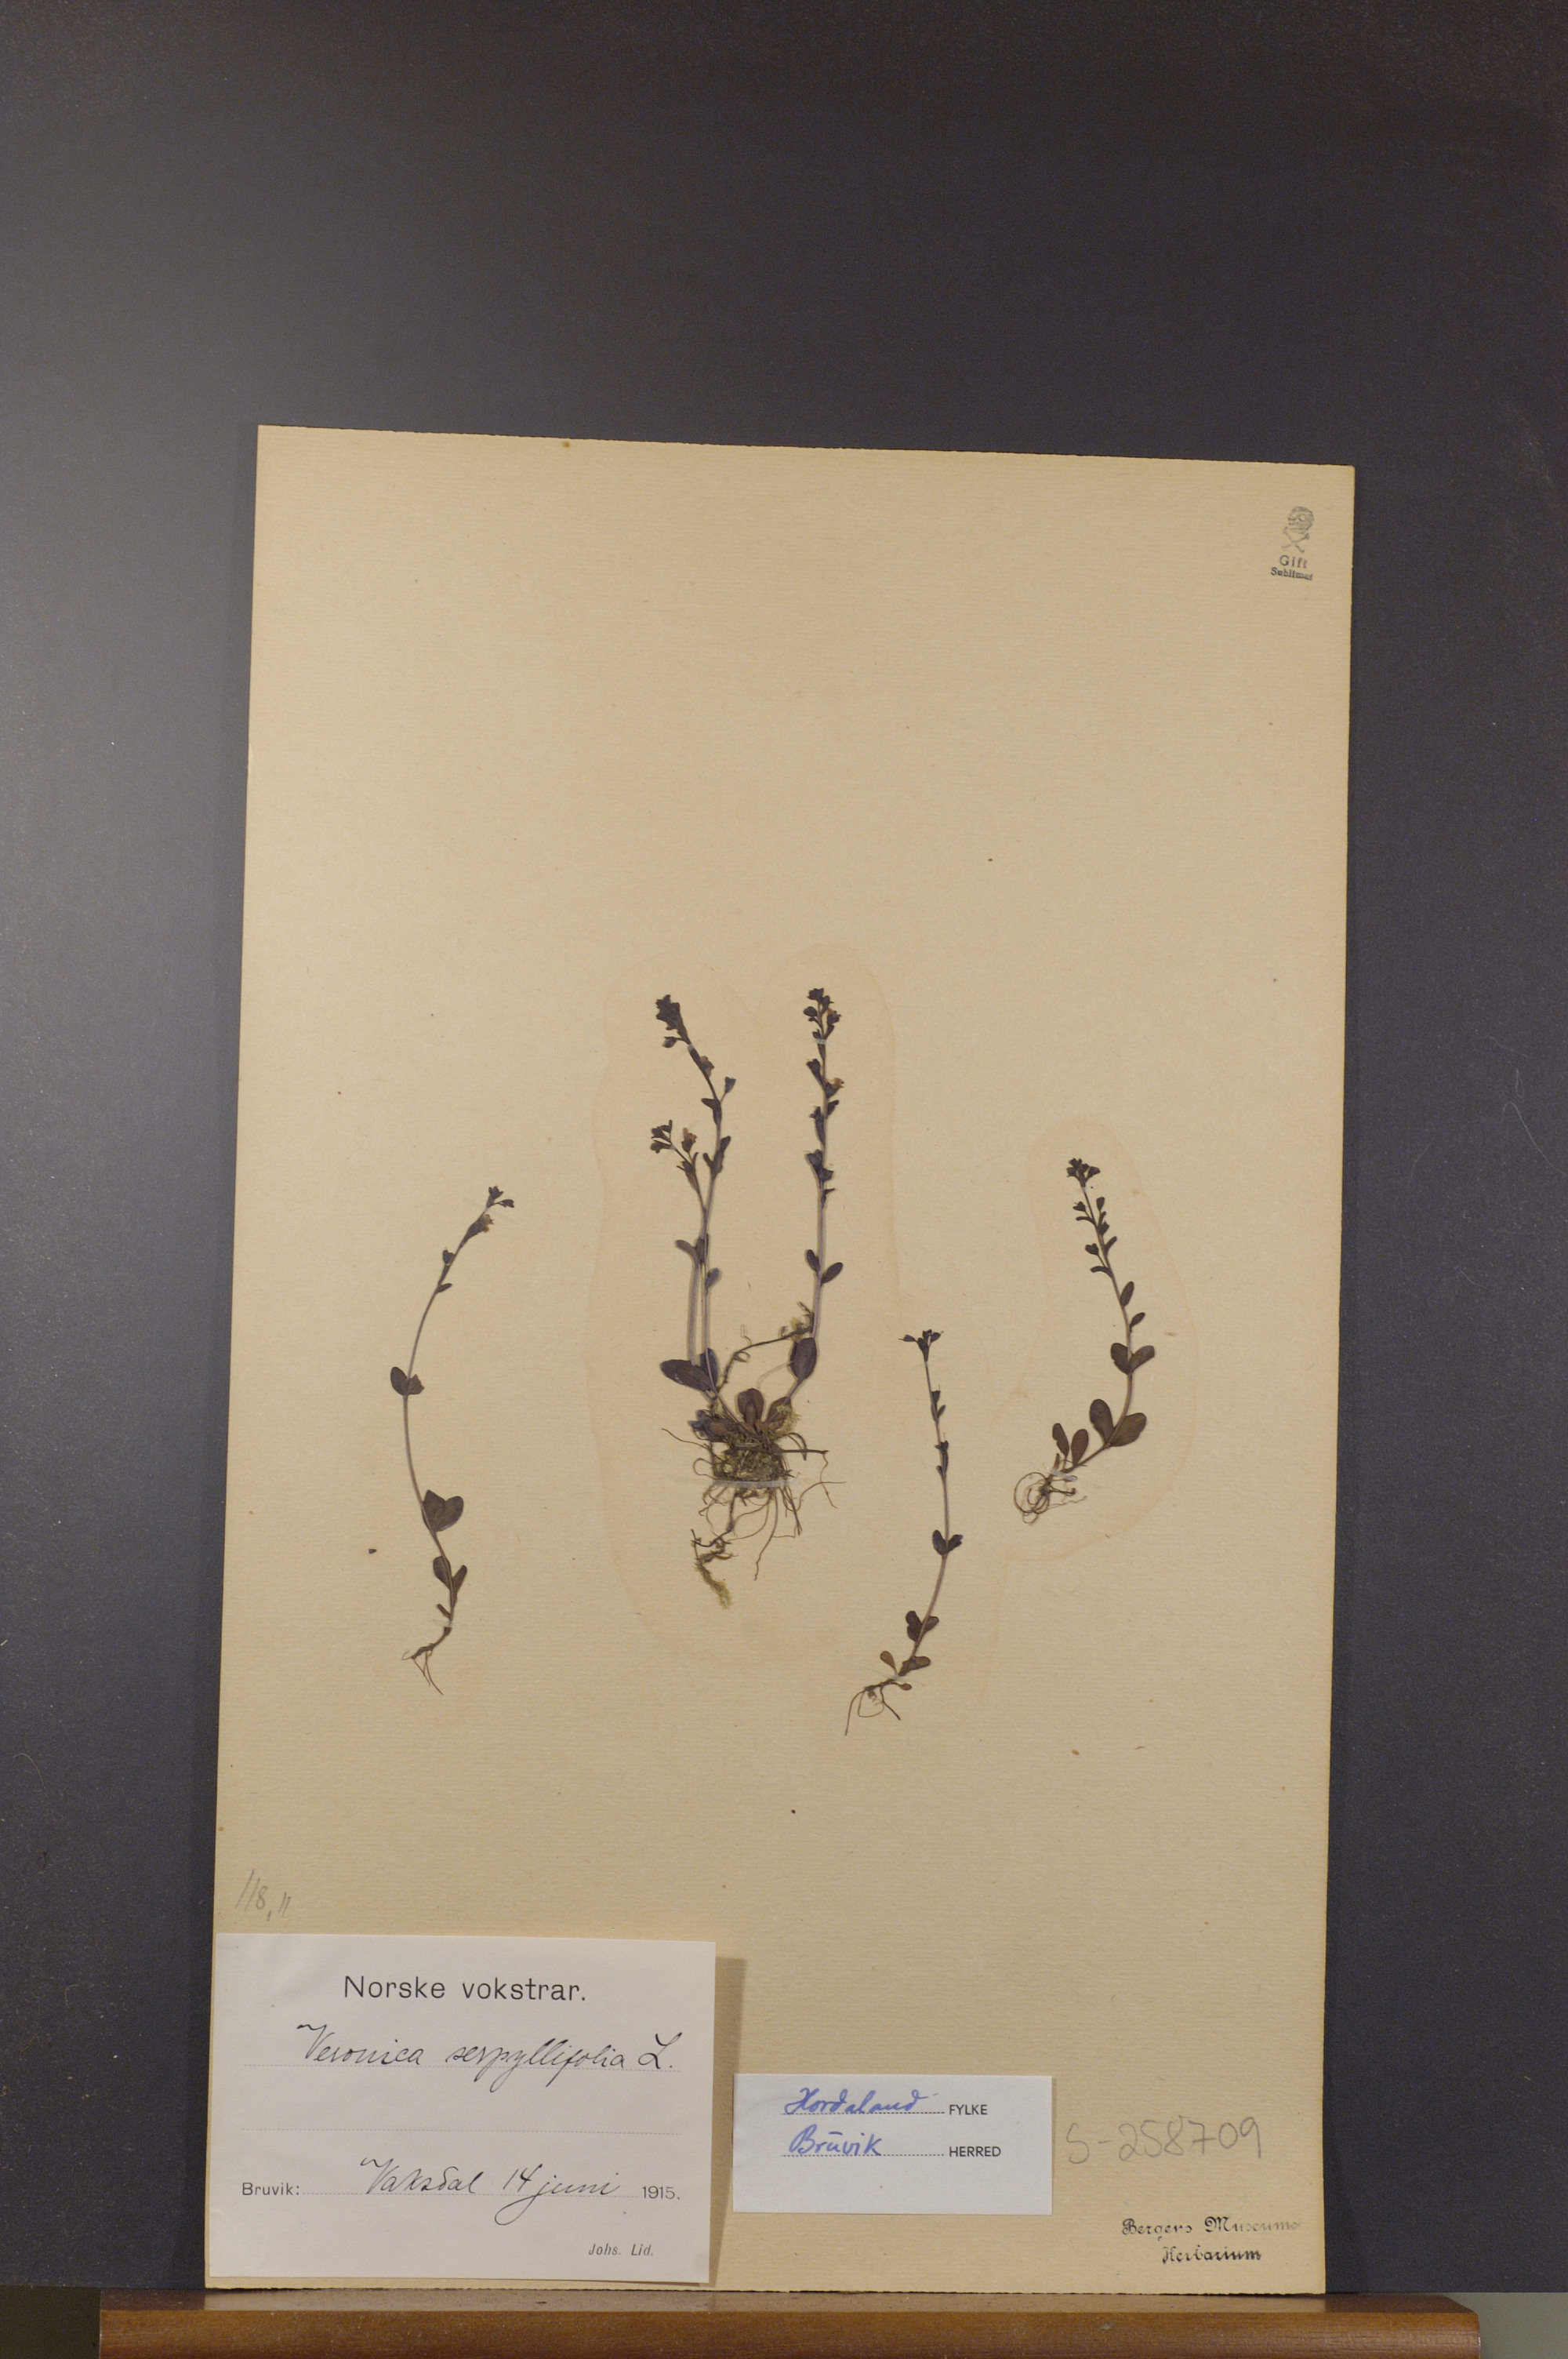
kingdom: Plantae
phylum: Tracheophyta
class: Magnoliopsida
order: Lamiales
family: Plantaginaceae
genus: Veronica
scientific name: Veronica serpyllifolia
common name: Thyme-leaved speedwell
